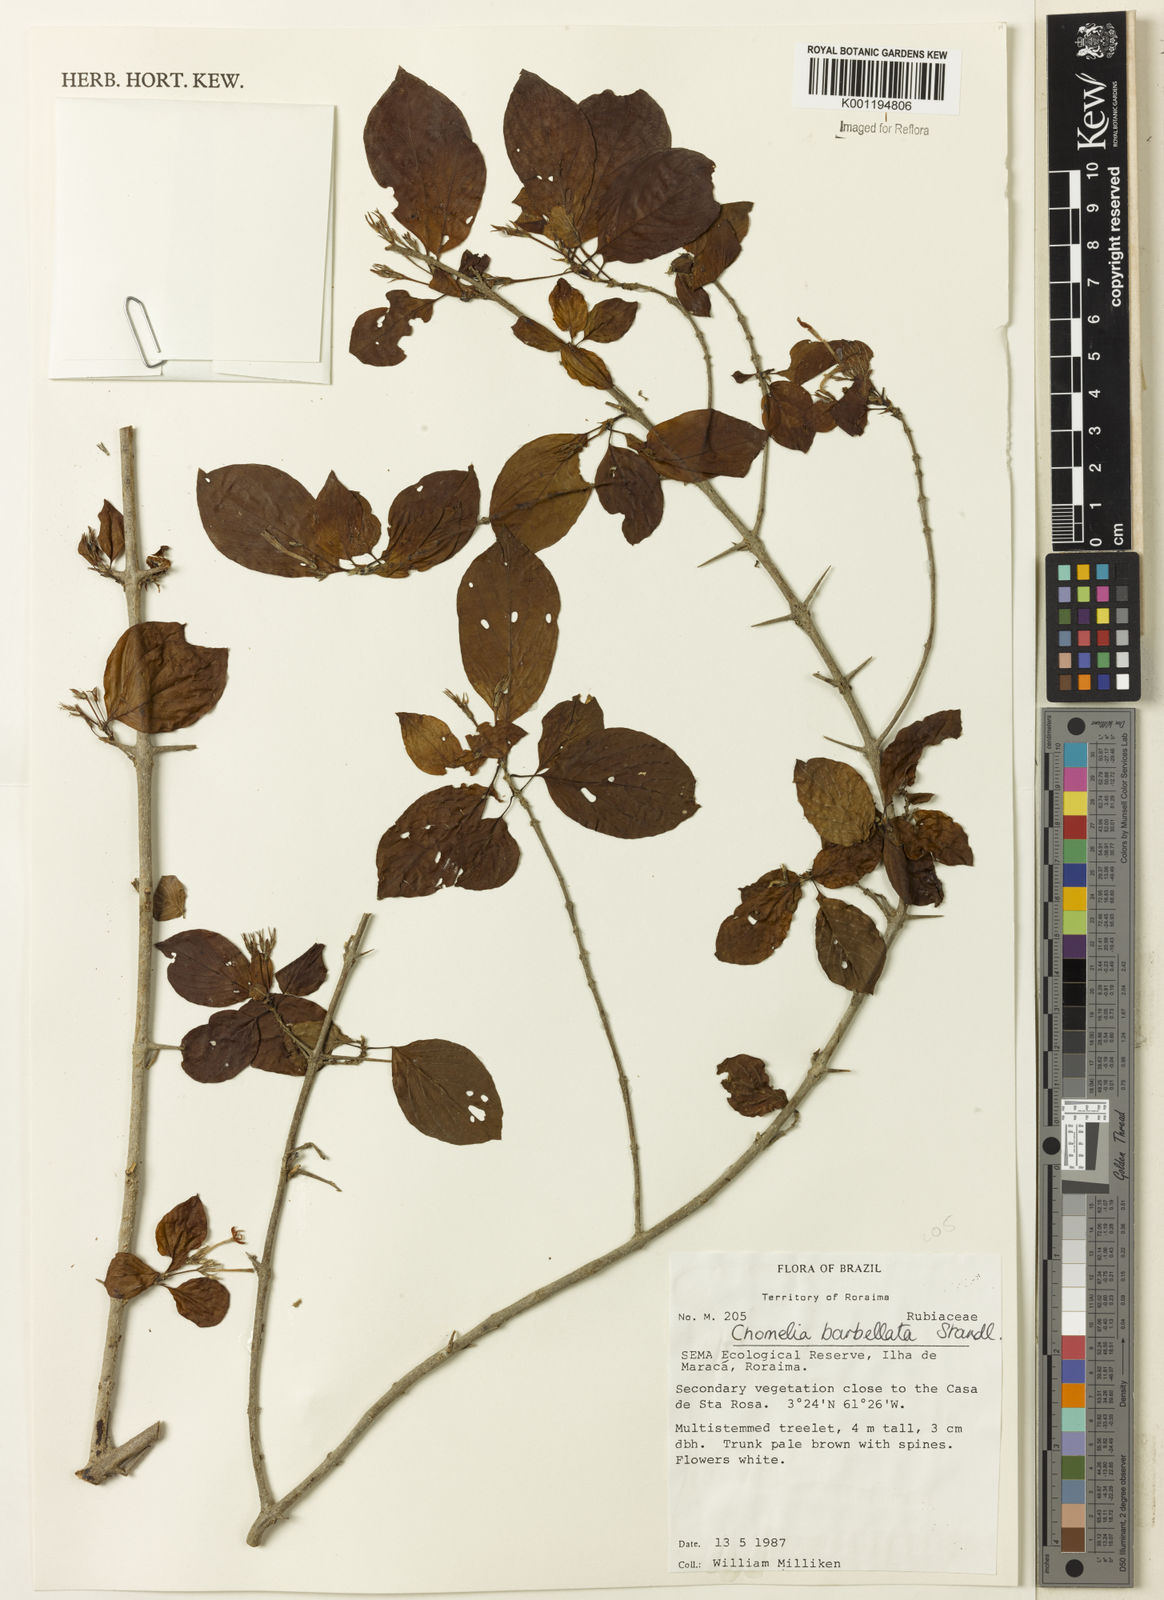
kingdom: Plantae
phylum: Tracheophyta
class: Magnoliopsida
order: Gentianales
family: Rubiaceae
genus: Chomelia
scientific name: Chomelia tenuiflora
